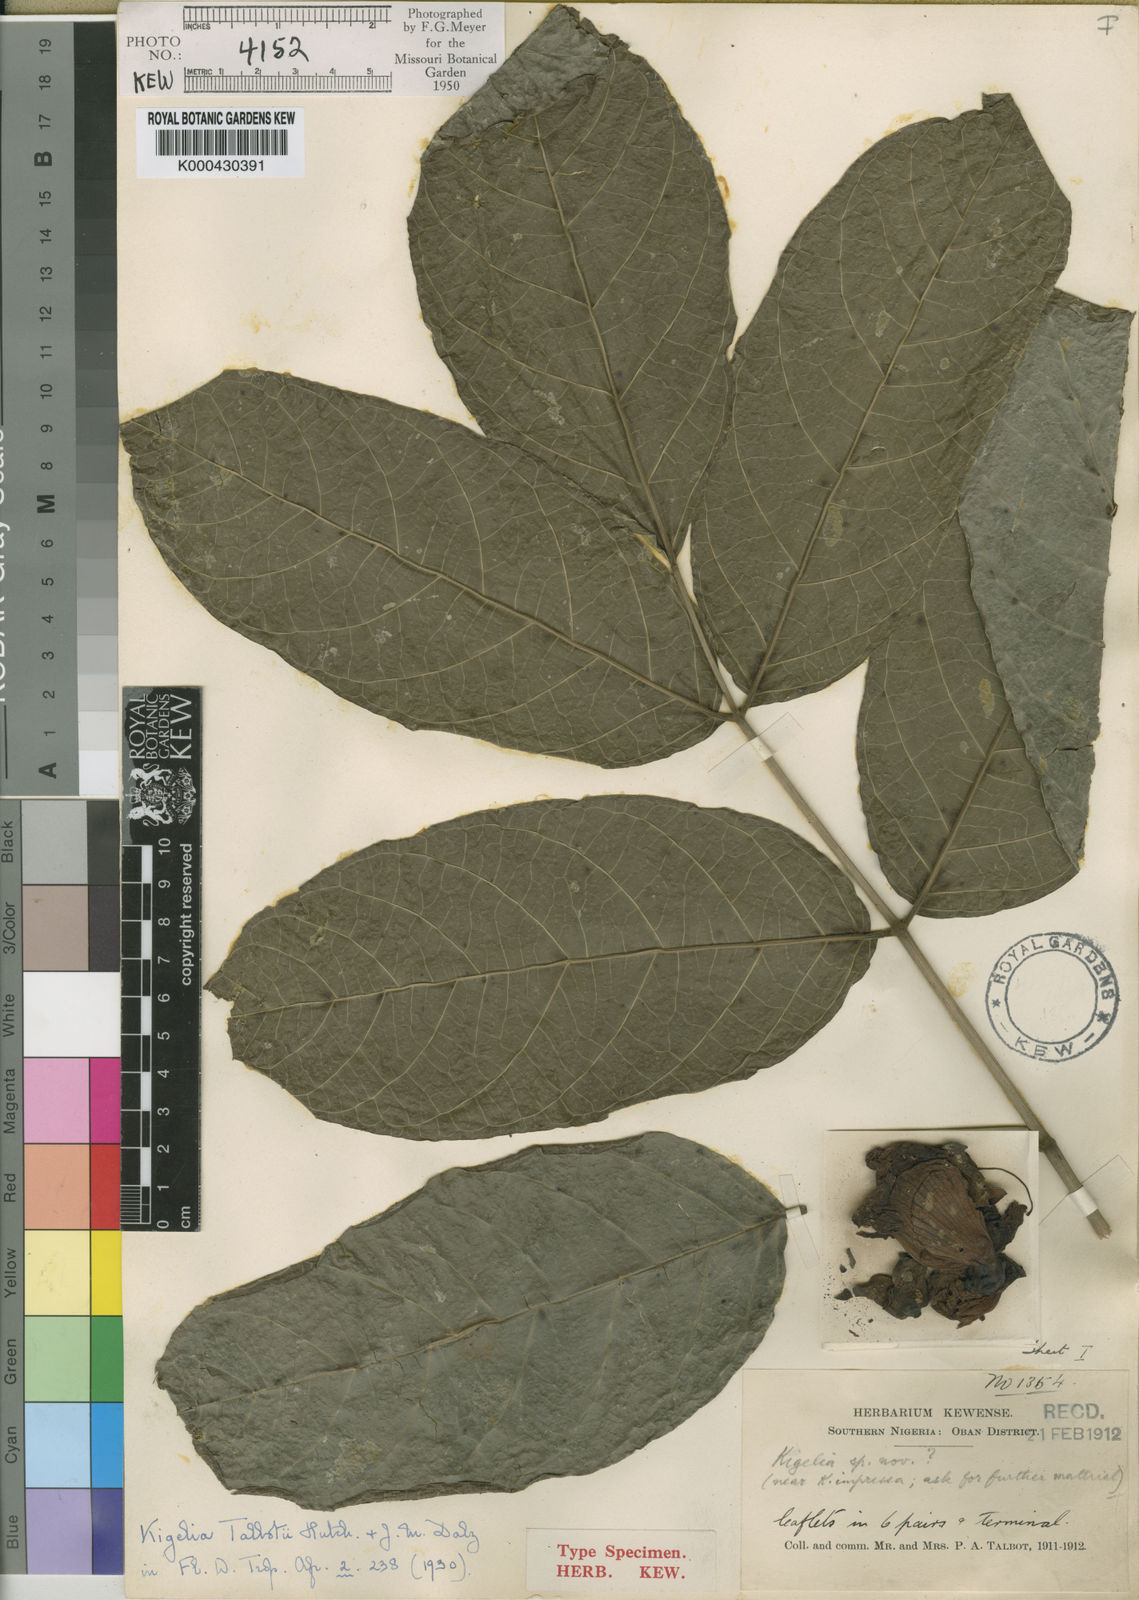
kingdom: Plantae
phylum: Tracheophyta
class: Magnoliopsida
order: Lamiales
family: Bignoniaceae
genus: Kigelia
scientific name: Kigelia africana
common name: Sausage tree
